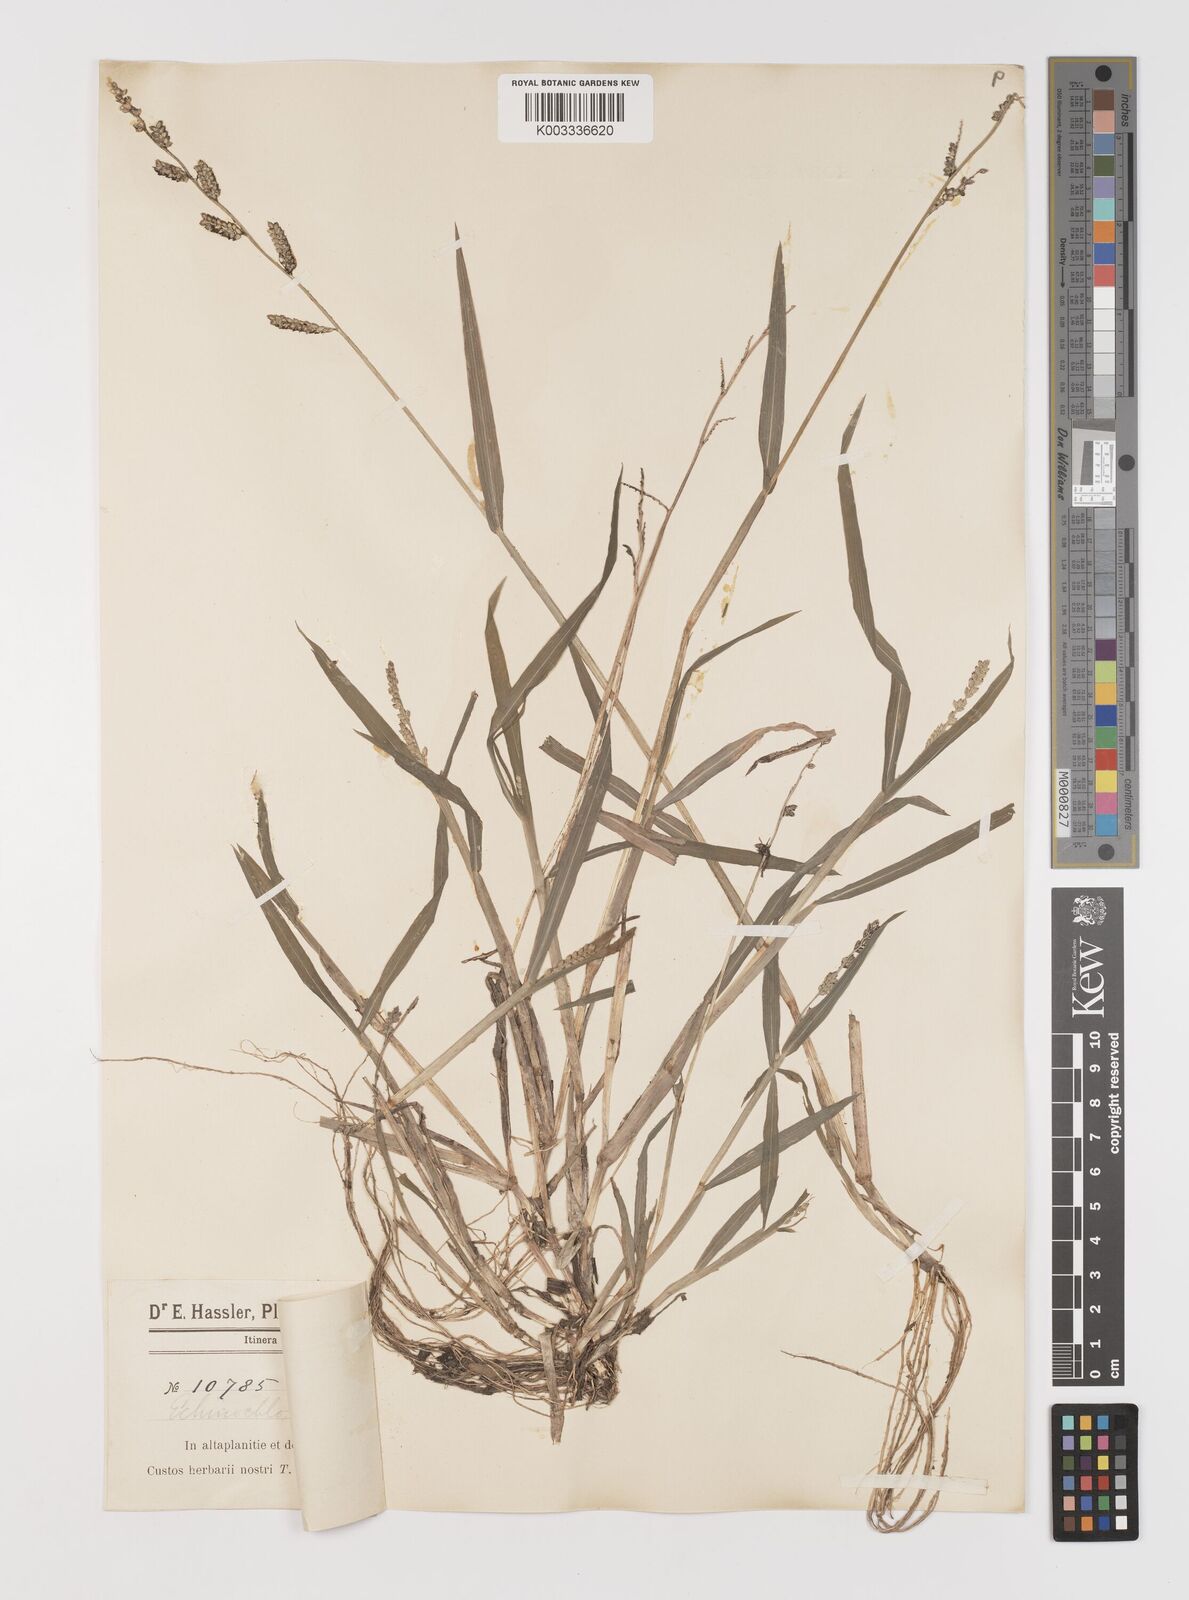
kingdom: Plantae
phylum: Tracheophyta
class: Liliopsida
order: Poales
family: Poaceae
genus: Echinochloa
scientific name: Echinochloa colonum
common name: Jungle rice
